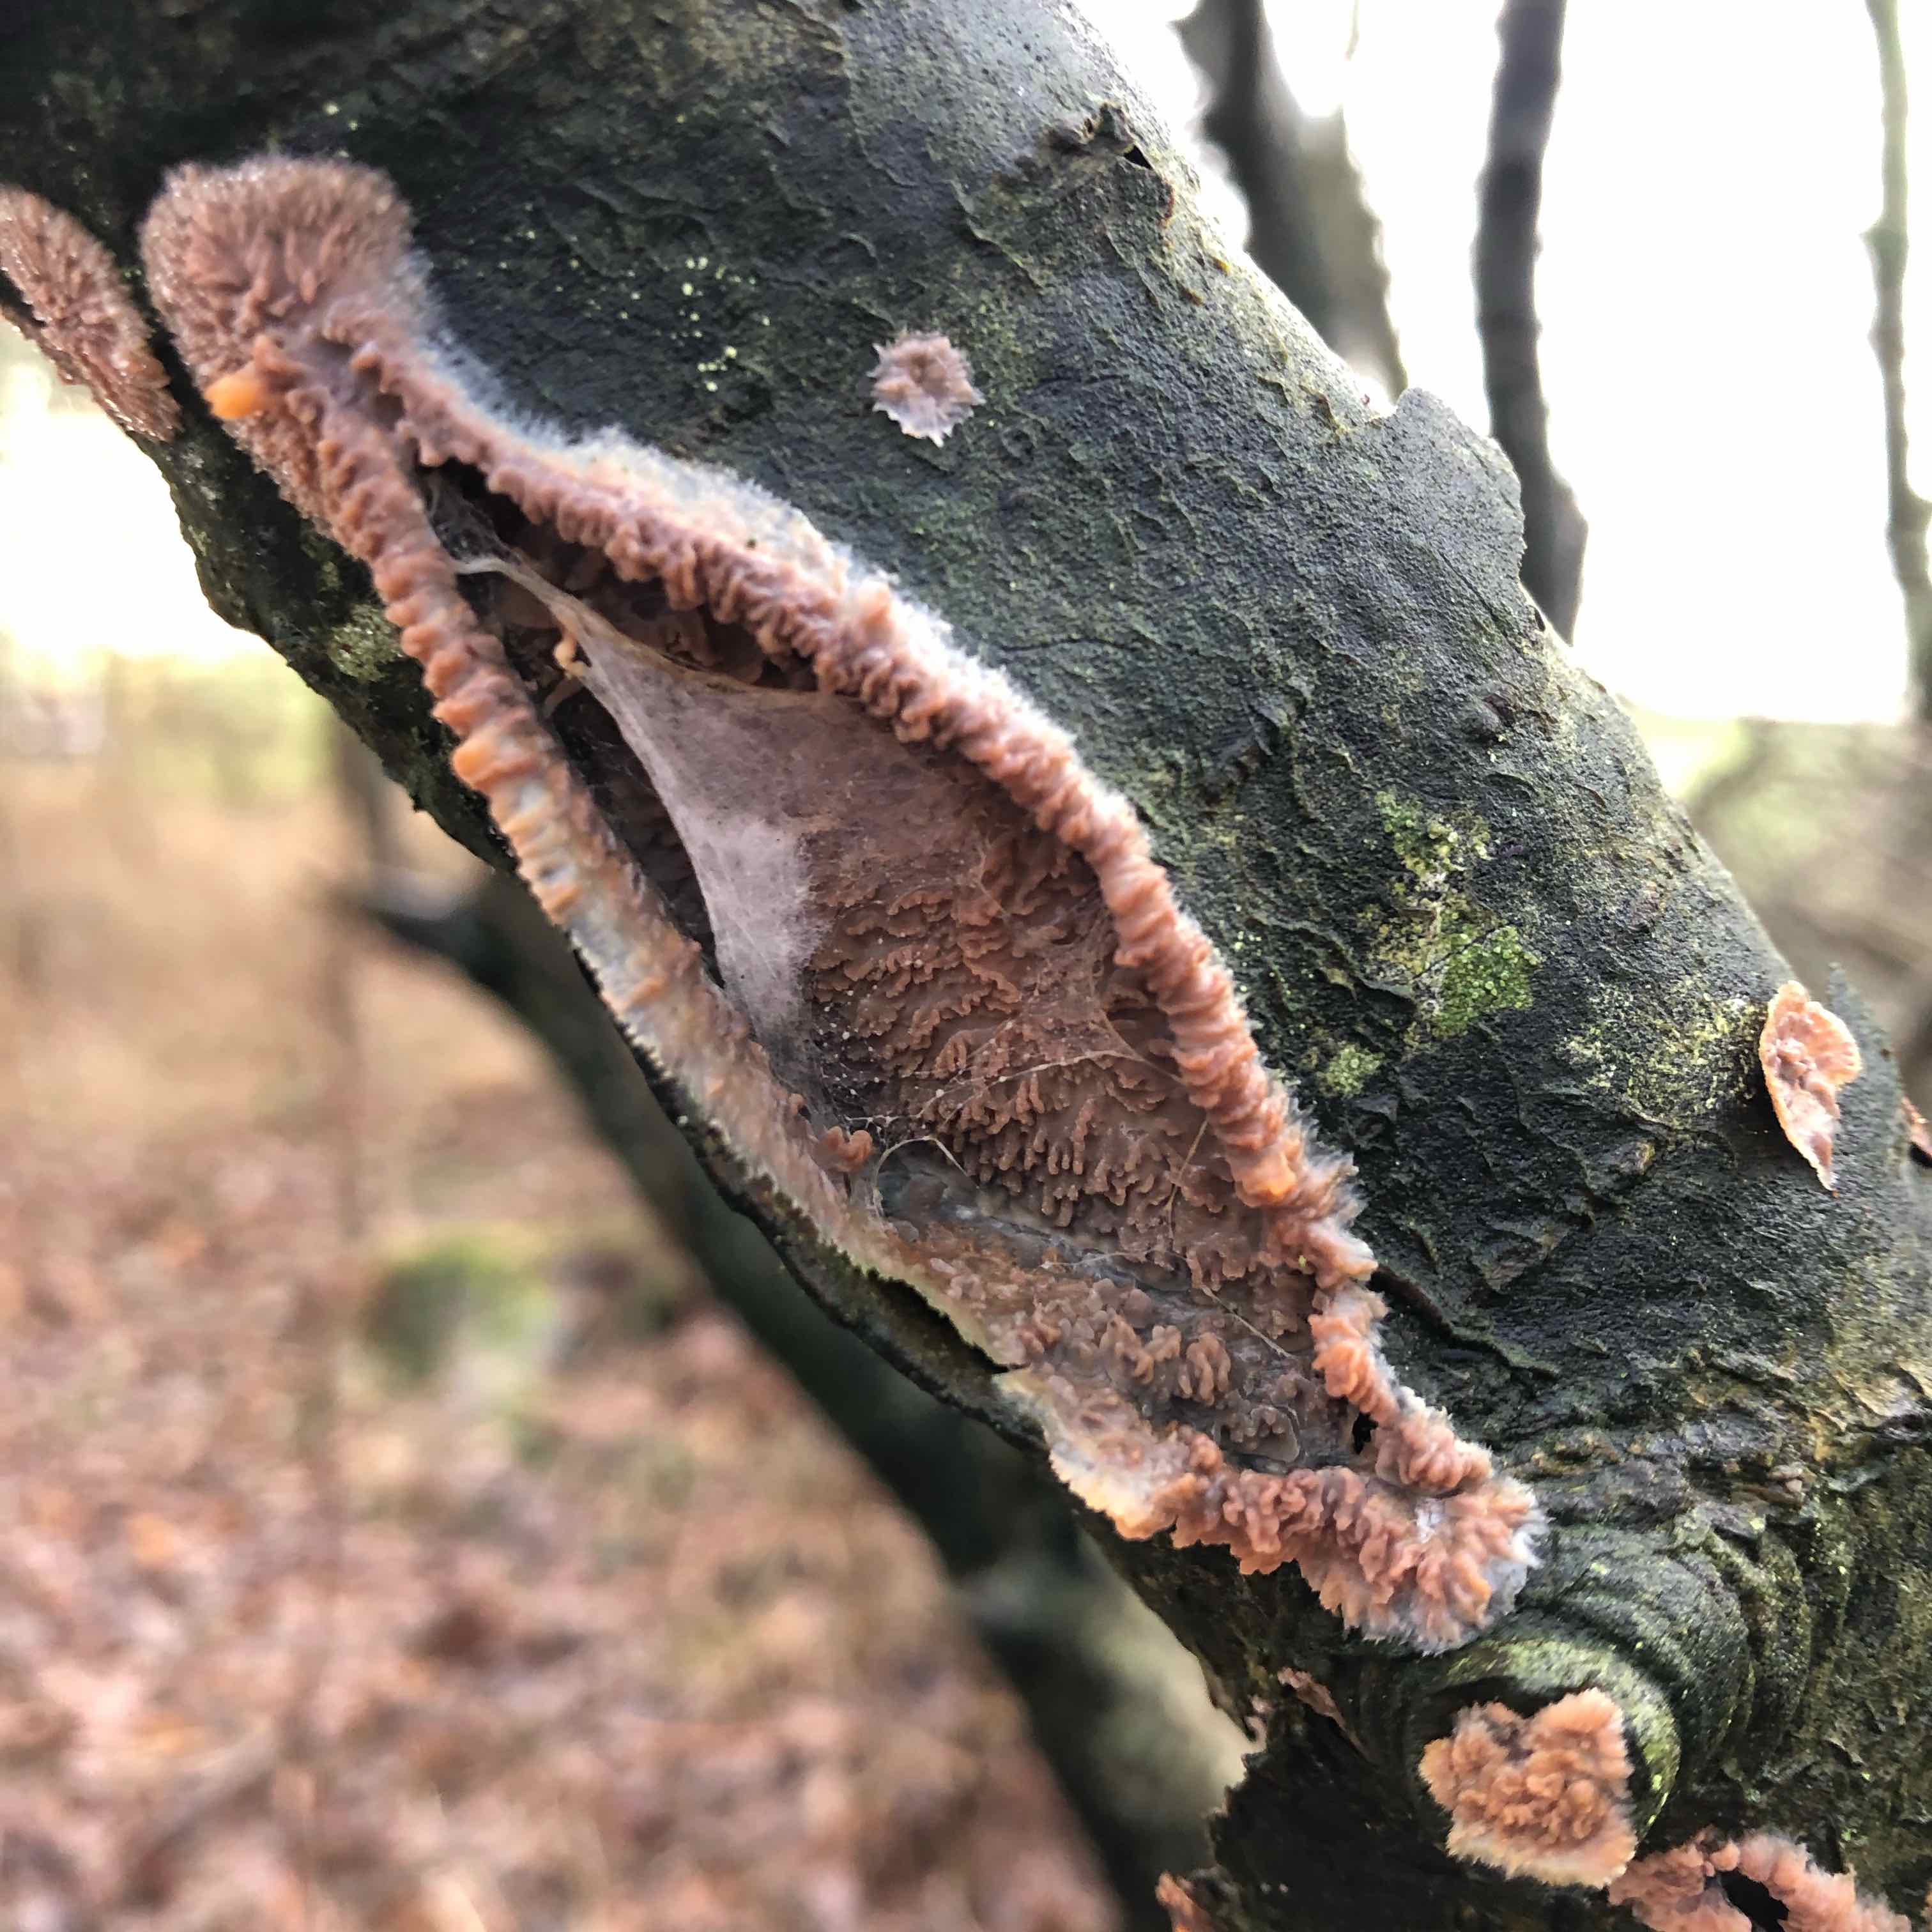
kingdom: Fungi
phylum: Basidiomycota
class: Agaricomycetes
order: Polyporales
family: Meruliaceae
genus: Phlebia
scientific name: Phlebia radiata
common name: stråle-åresvamp
